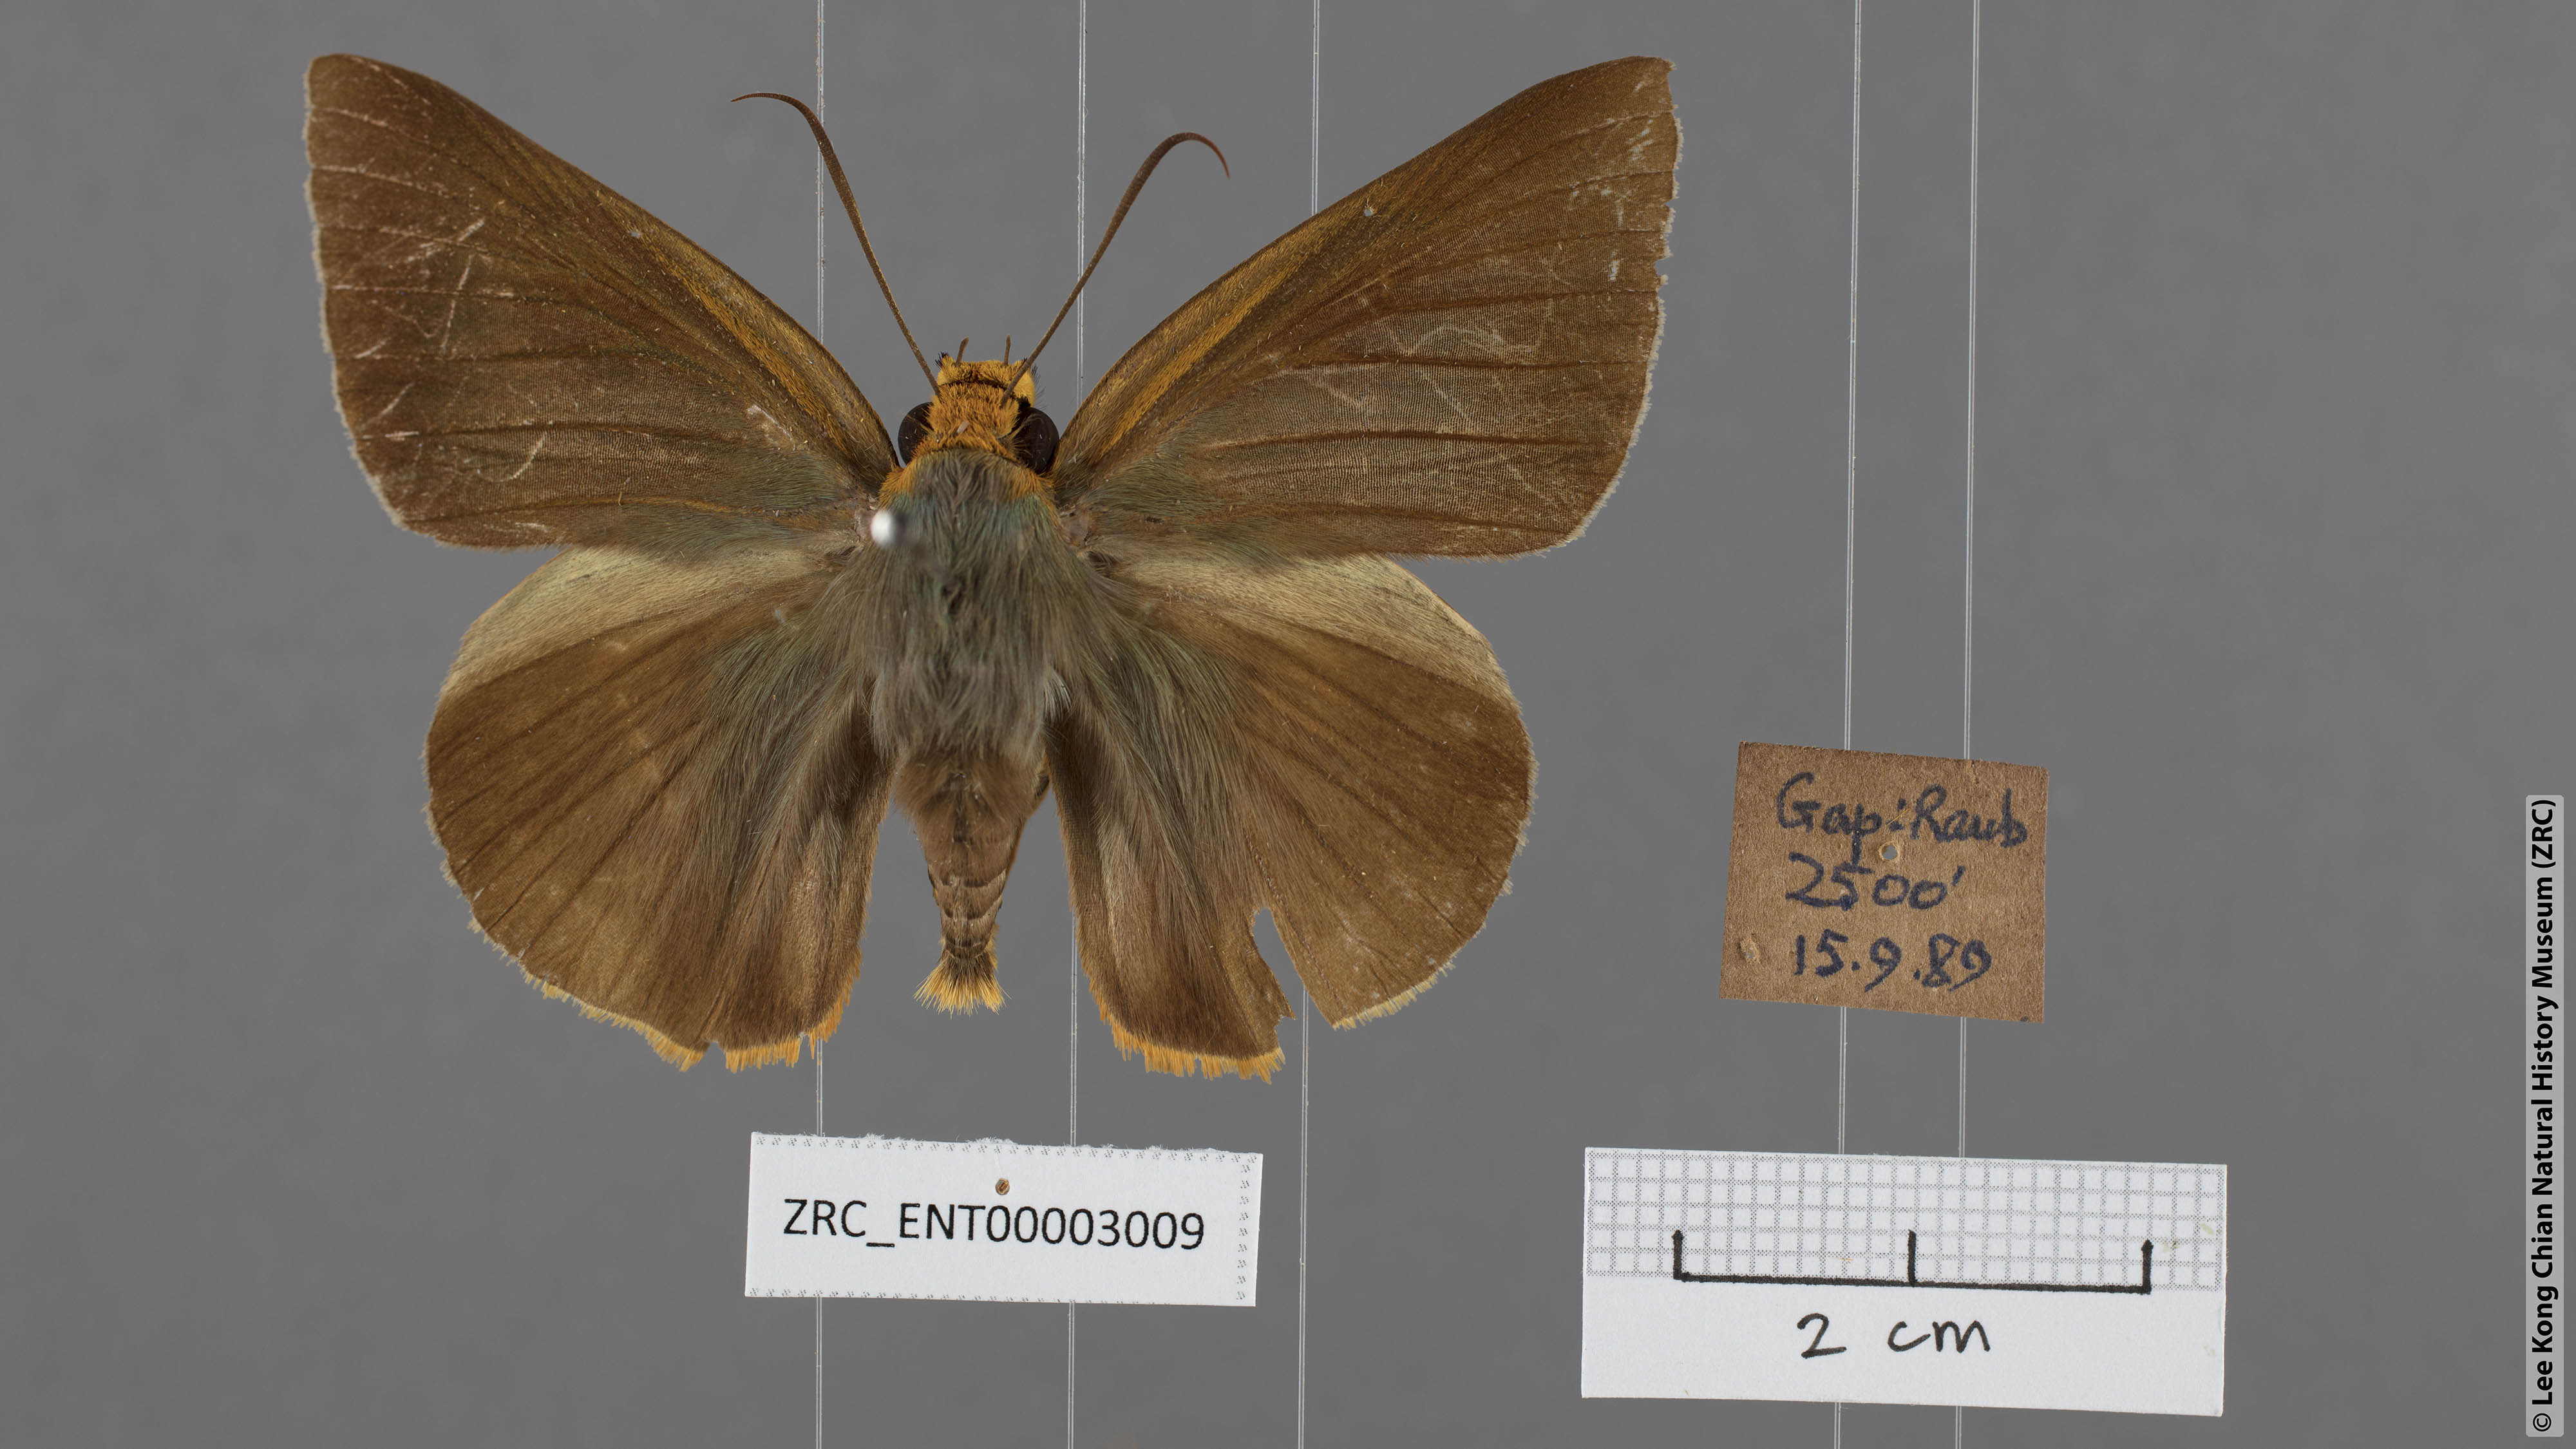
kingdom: Animalia
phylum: Arthropoda
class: Insecta
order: Lepidoptera
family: Hesperiidae
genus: Bibasis
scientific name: Bibasis etelka
